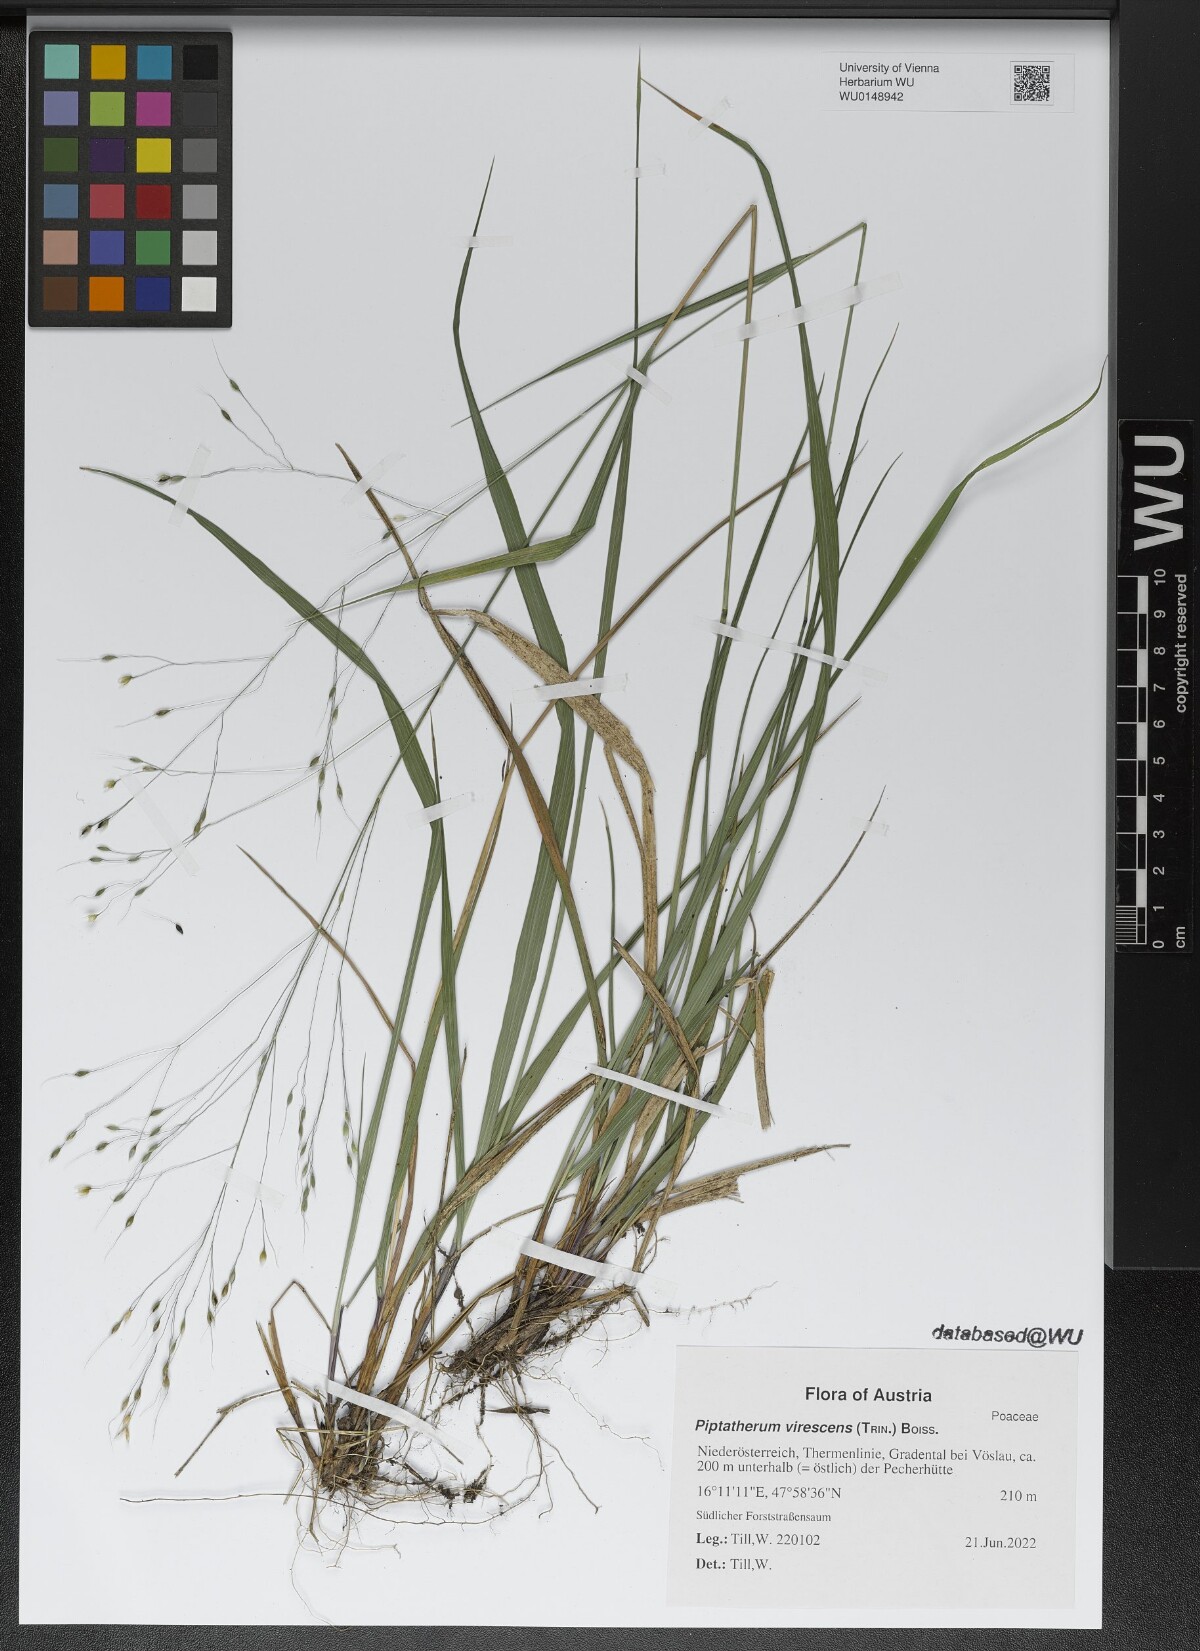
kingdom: Plantae
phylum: Tracheophyta
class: Liliopsida
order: Poales
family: Poaceae
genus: Achnatherum
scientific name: Achnatherum virescens
